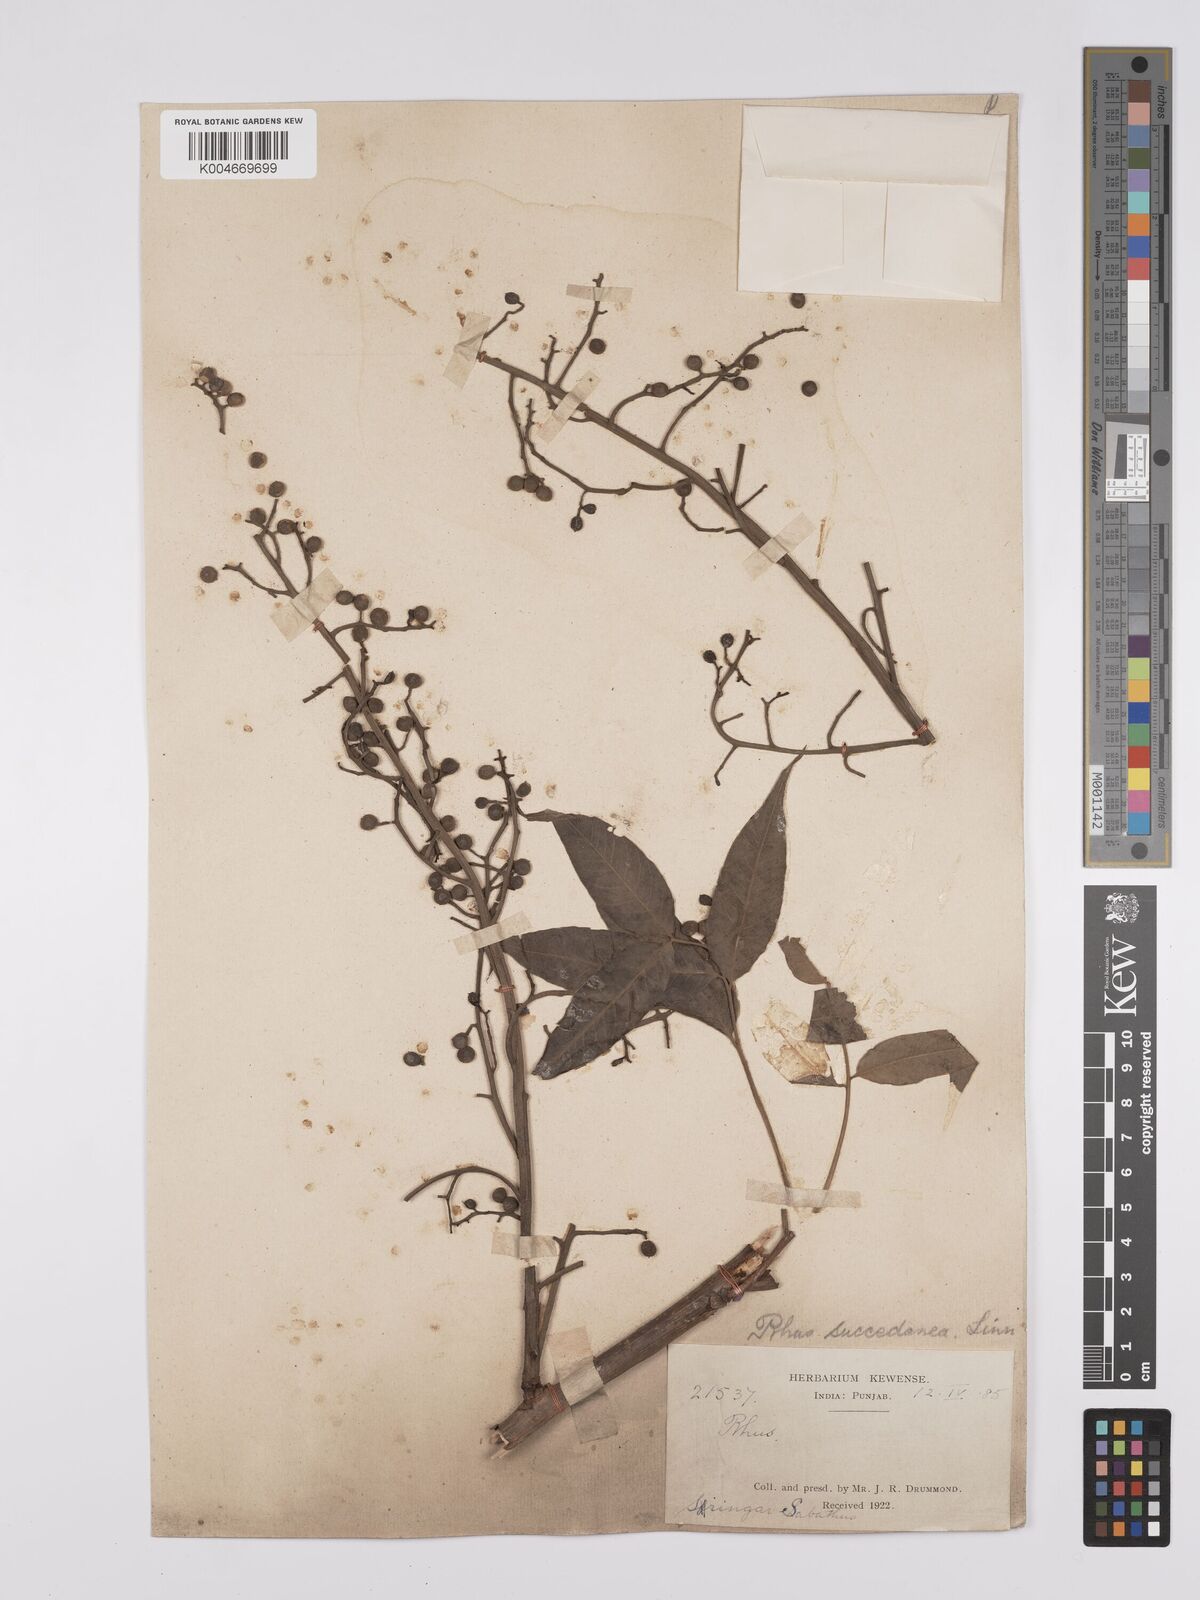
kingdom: Plantae
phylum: Tracheophyta
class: Magnoliopsida
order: Sapindales
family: Anacardiaceae
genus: Toxicodendron
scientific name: Toxicodendron succedaneum
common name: Wax tree
